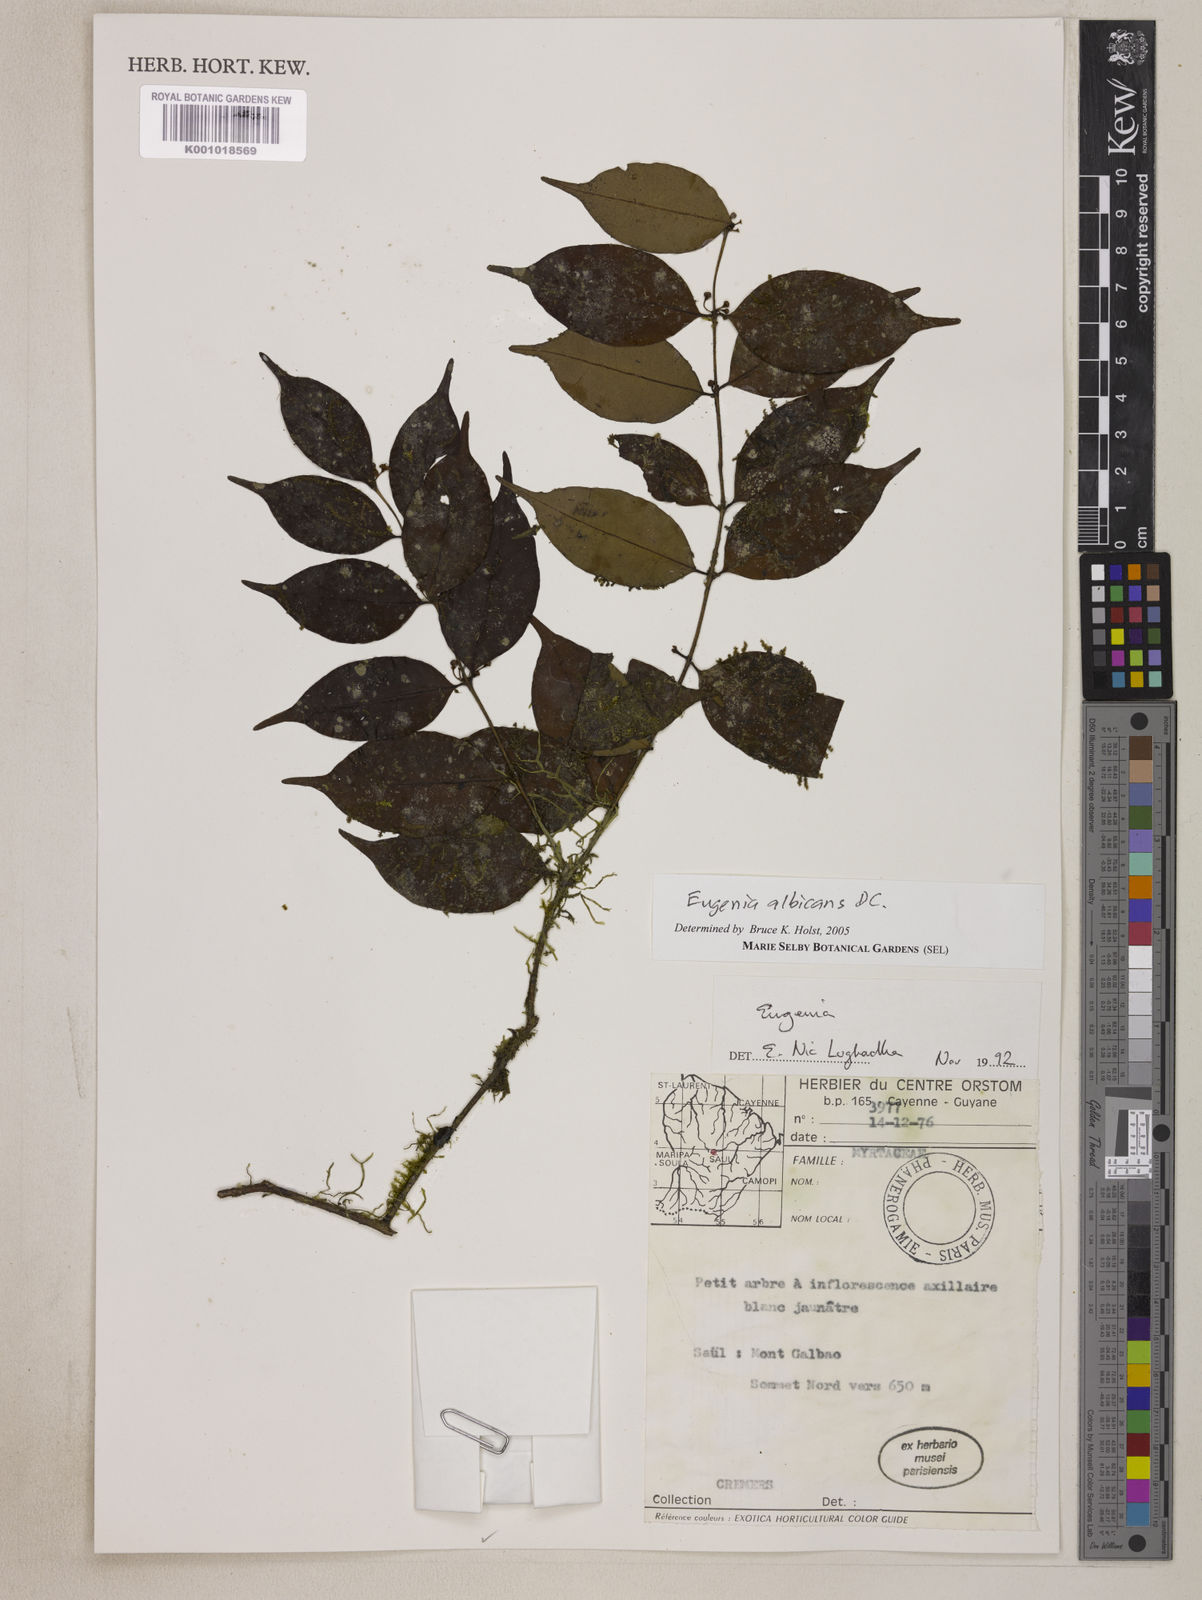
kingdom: Plantae
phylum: Tracheophyta
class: Magnoliopsida
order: Myrtales
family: Myrtaceae
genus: Eugenia
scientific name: Eugenia albicans
